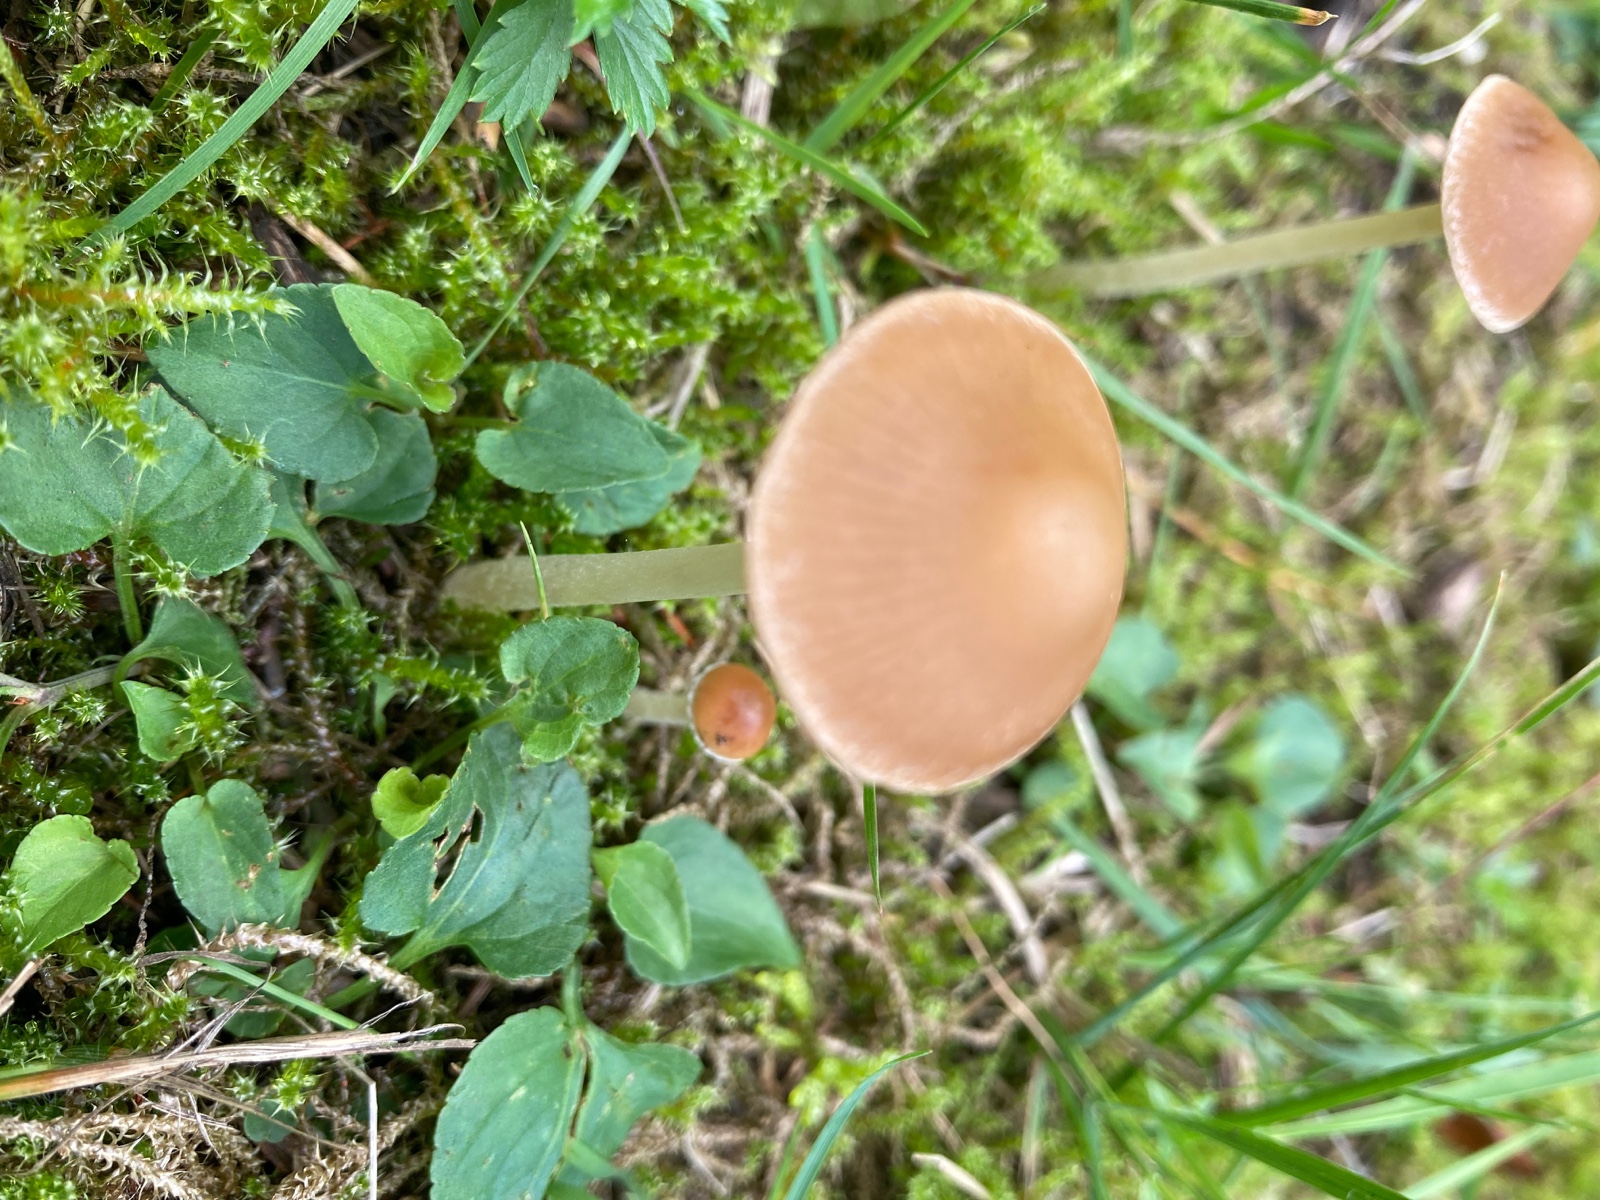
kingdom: Fungi
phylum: Basidiomycota
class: Agaricomycetes
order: Agaricales
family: Psathyrellaceae
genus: Psathyrella
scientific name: Psathyrella
